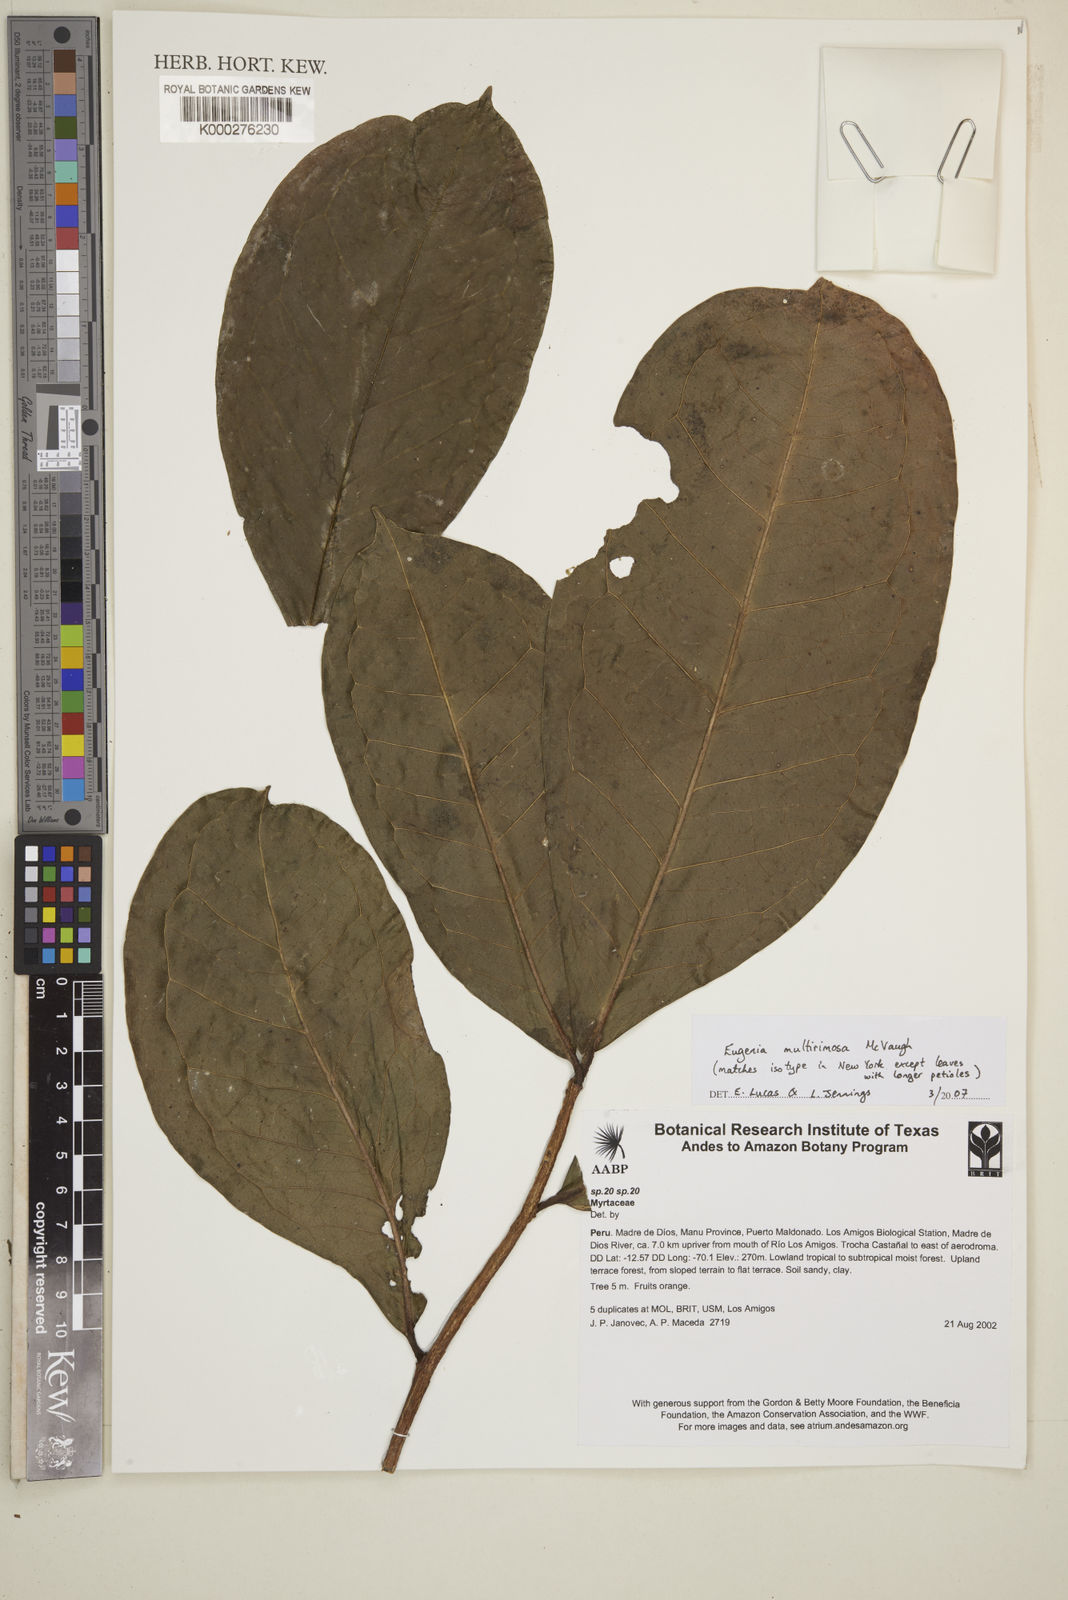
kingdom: Plantae
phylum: Tracheophyta
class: Magnoliopsida
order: Myrtales
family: Myrtaceae
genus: Eugenia
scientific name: Eugenia multirimosa
